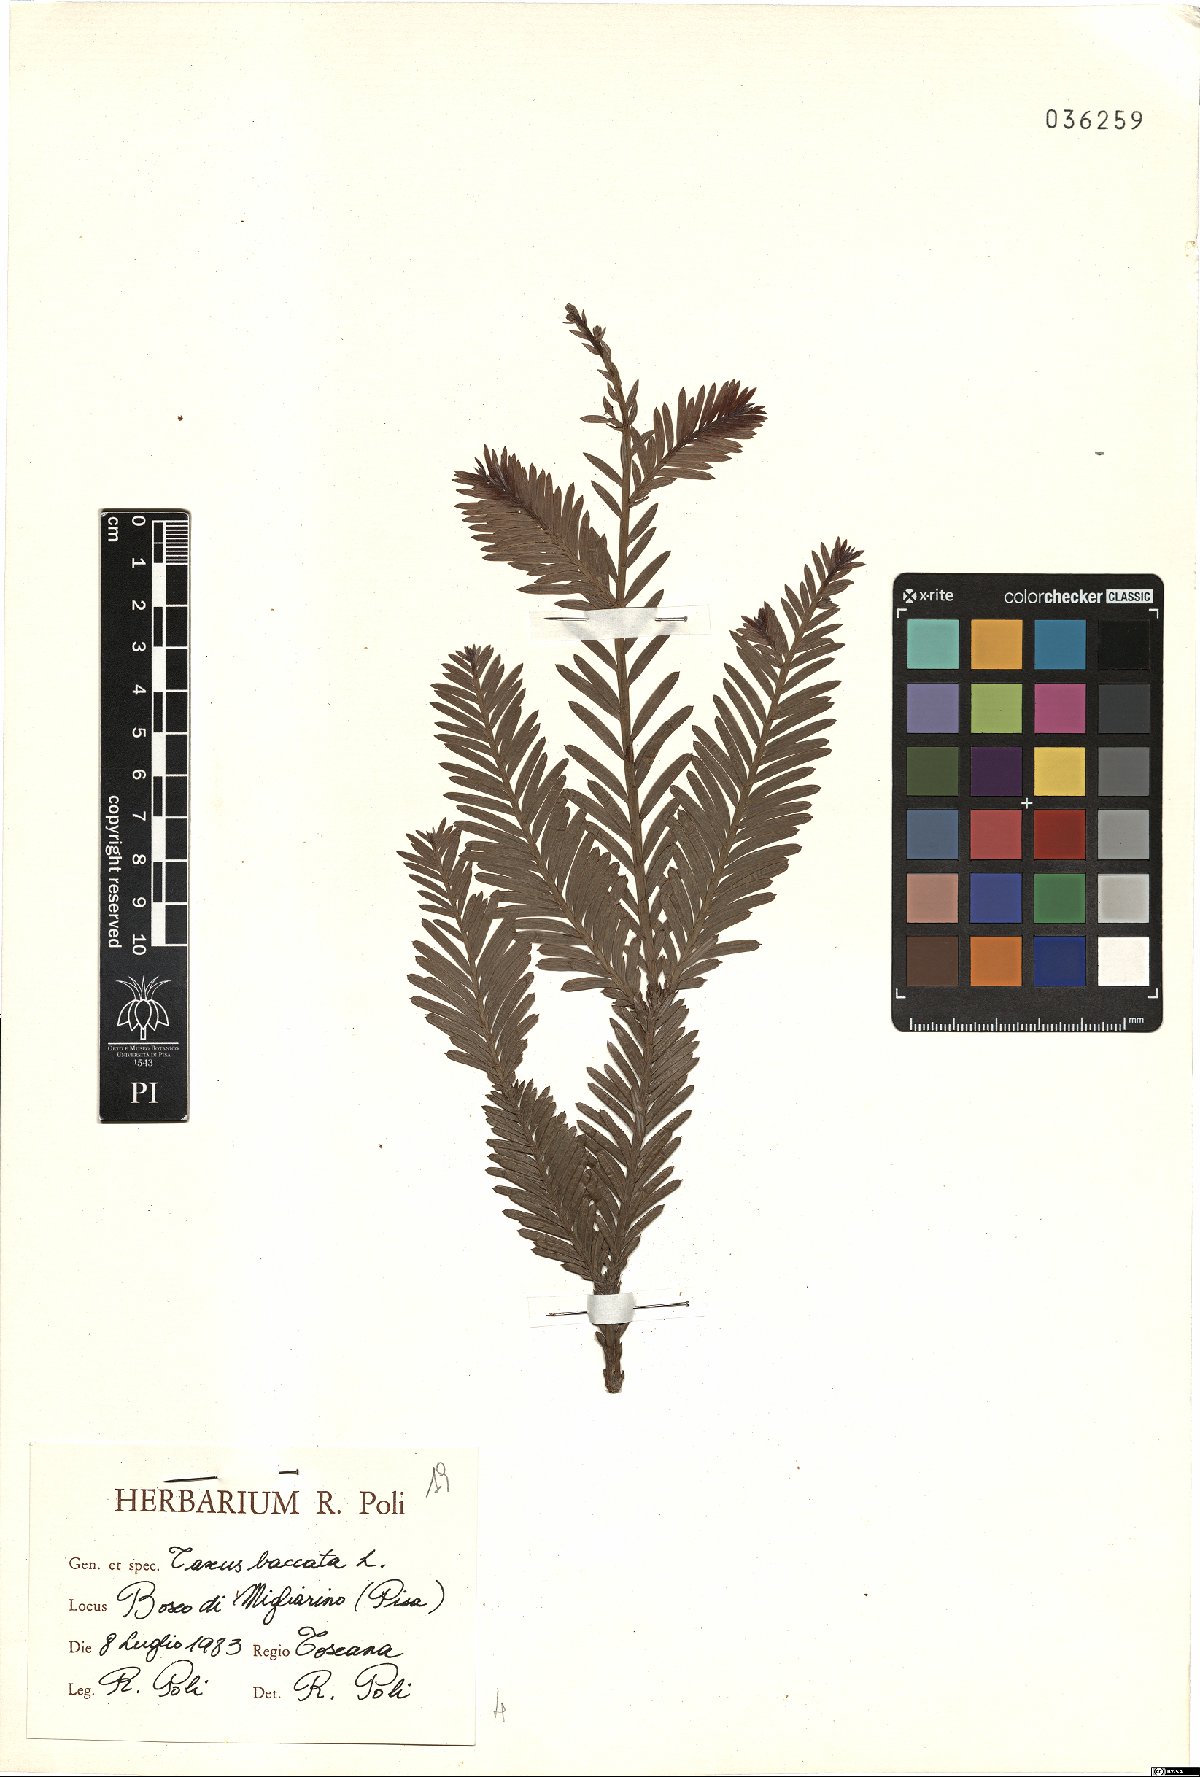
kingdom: Plantae
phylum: Tracheophyta
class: Pinopsida
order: Pinales
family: Taxaceae
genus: Taxus
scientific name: Taxus baccata
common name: Yew
